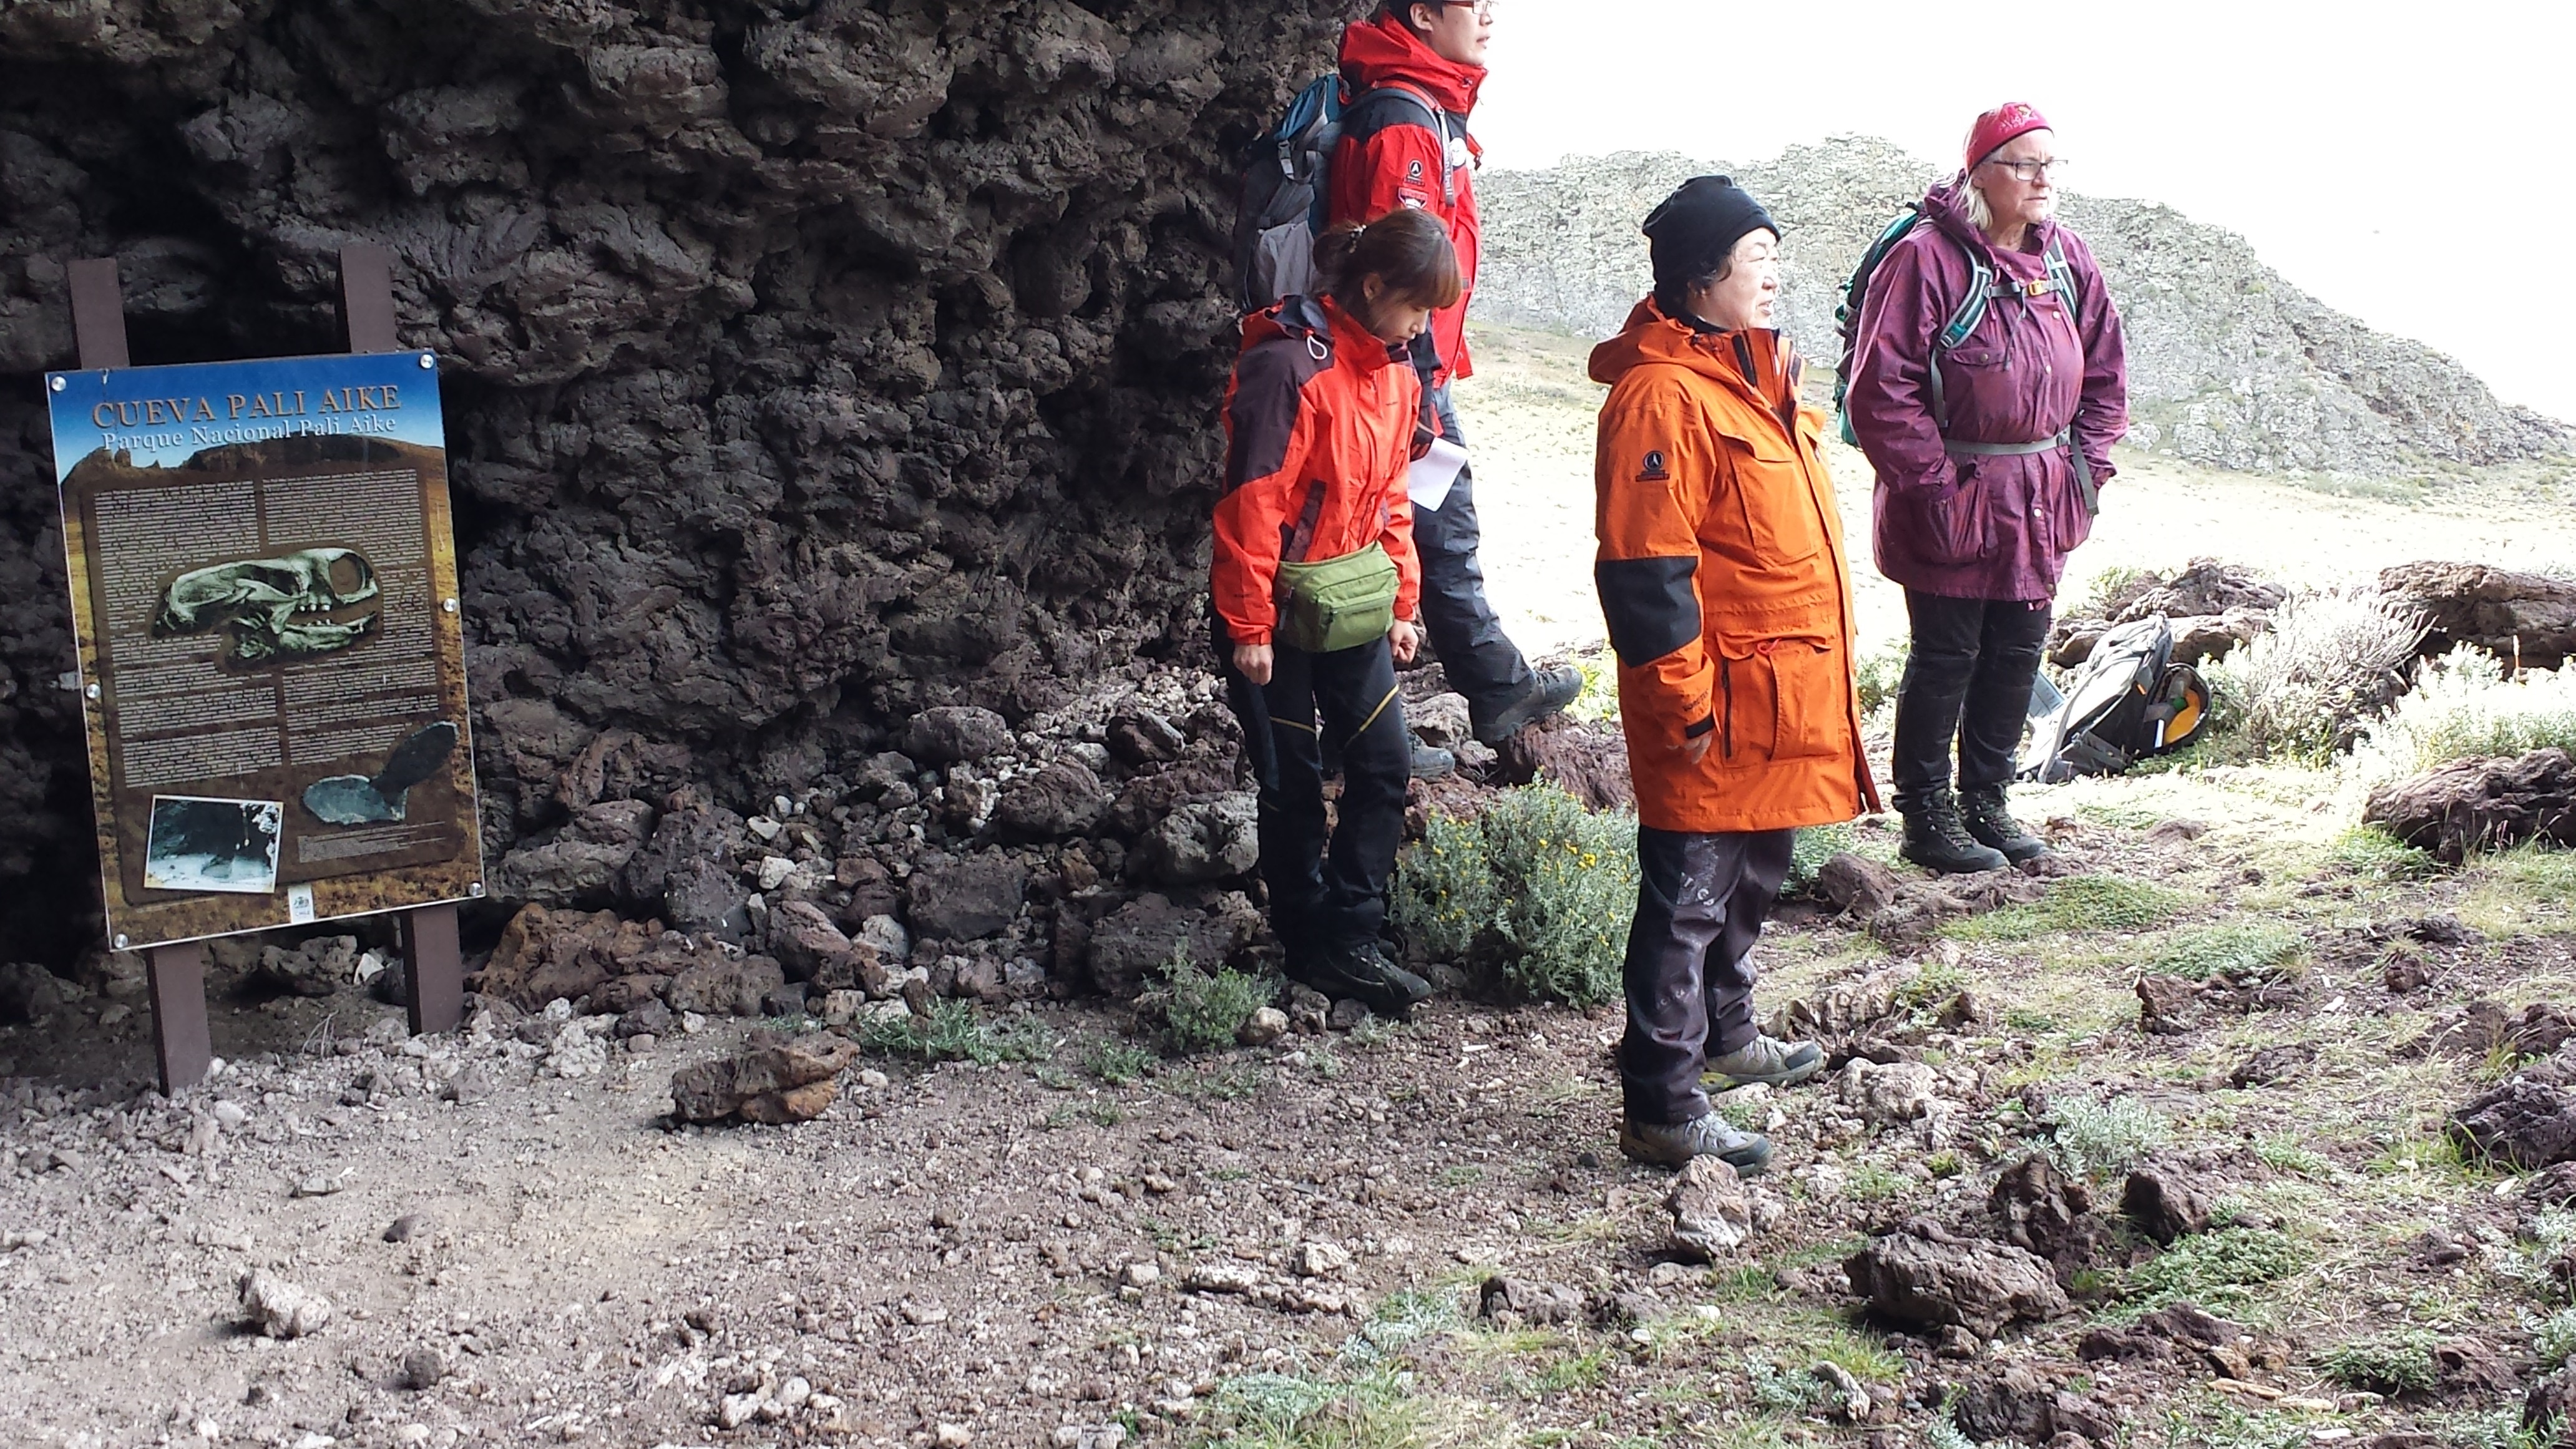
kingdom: Plantae
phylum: Tracheophyta
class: Magnoliopsida
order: Caryophyllales
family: Montiaceae
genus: Calandrinia
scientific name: Calandrinia ranunculina
